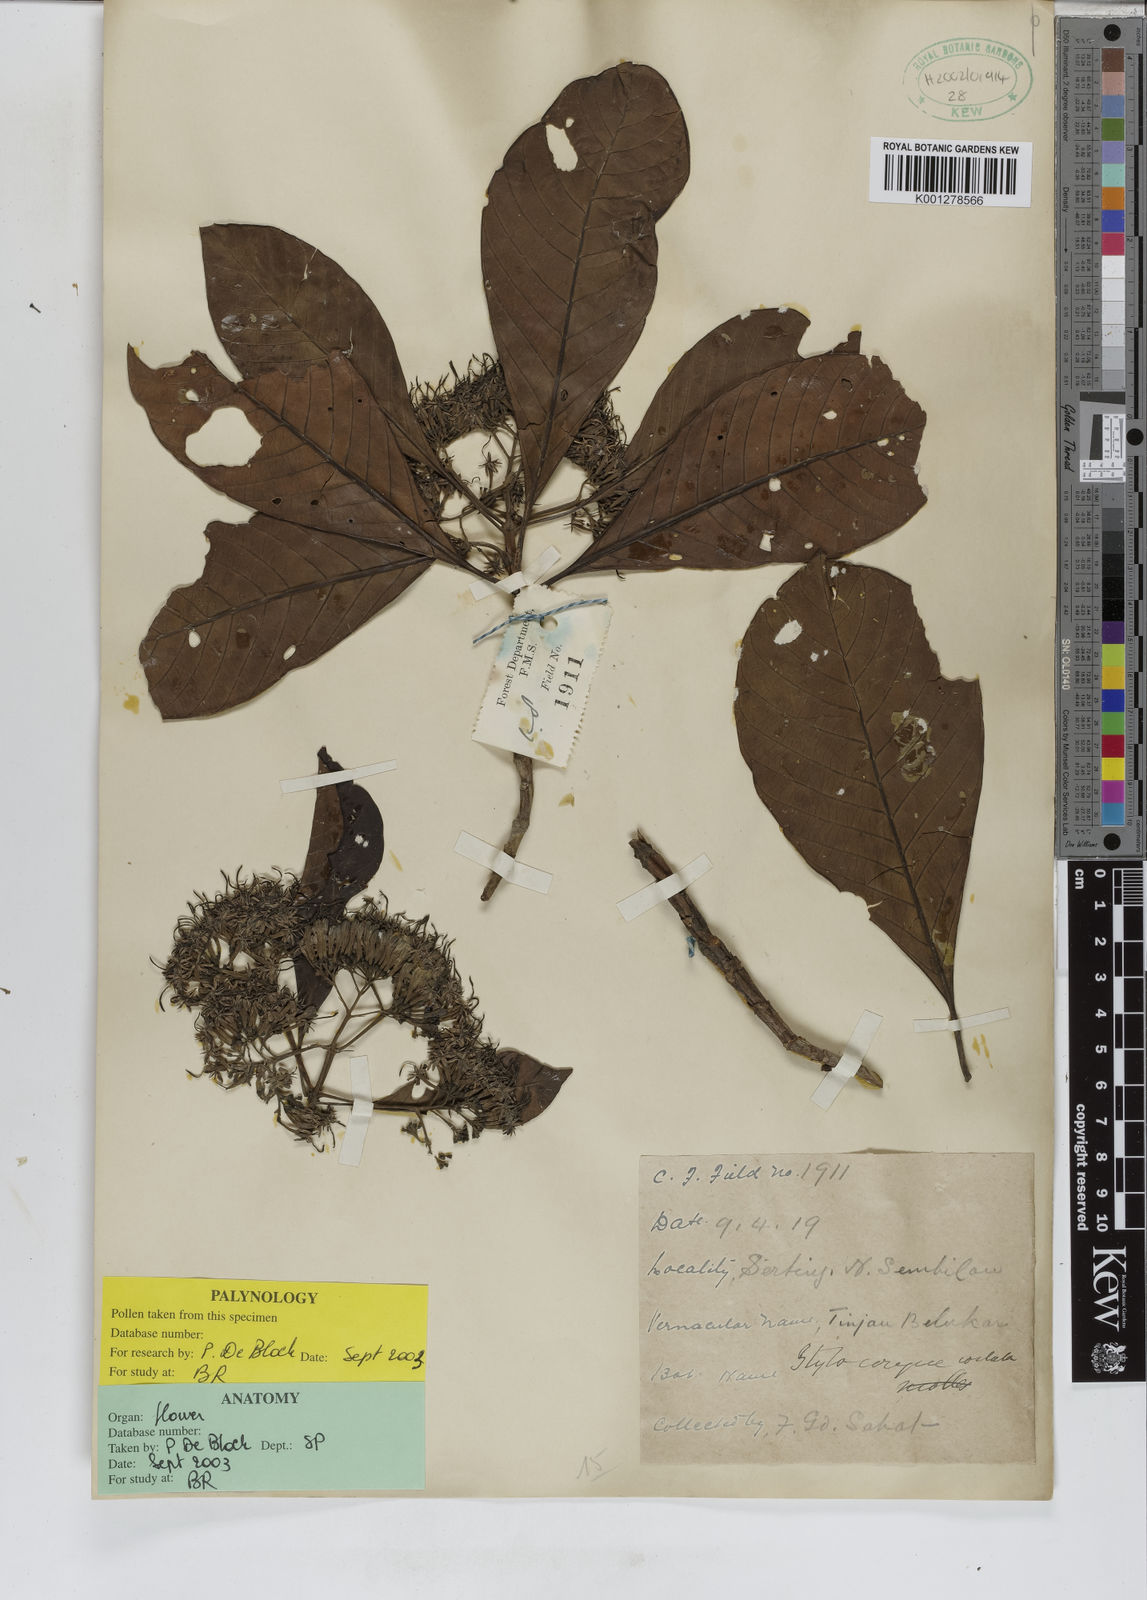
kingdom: Plantae
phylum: Tracheophyta
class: Magnoliopsida
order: Gentianales
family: Rubiaceae
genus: Tarenna
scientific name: Tarenna costata
